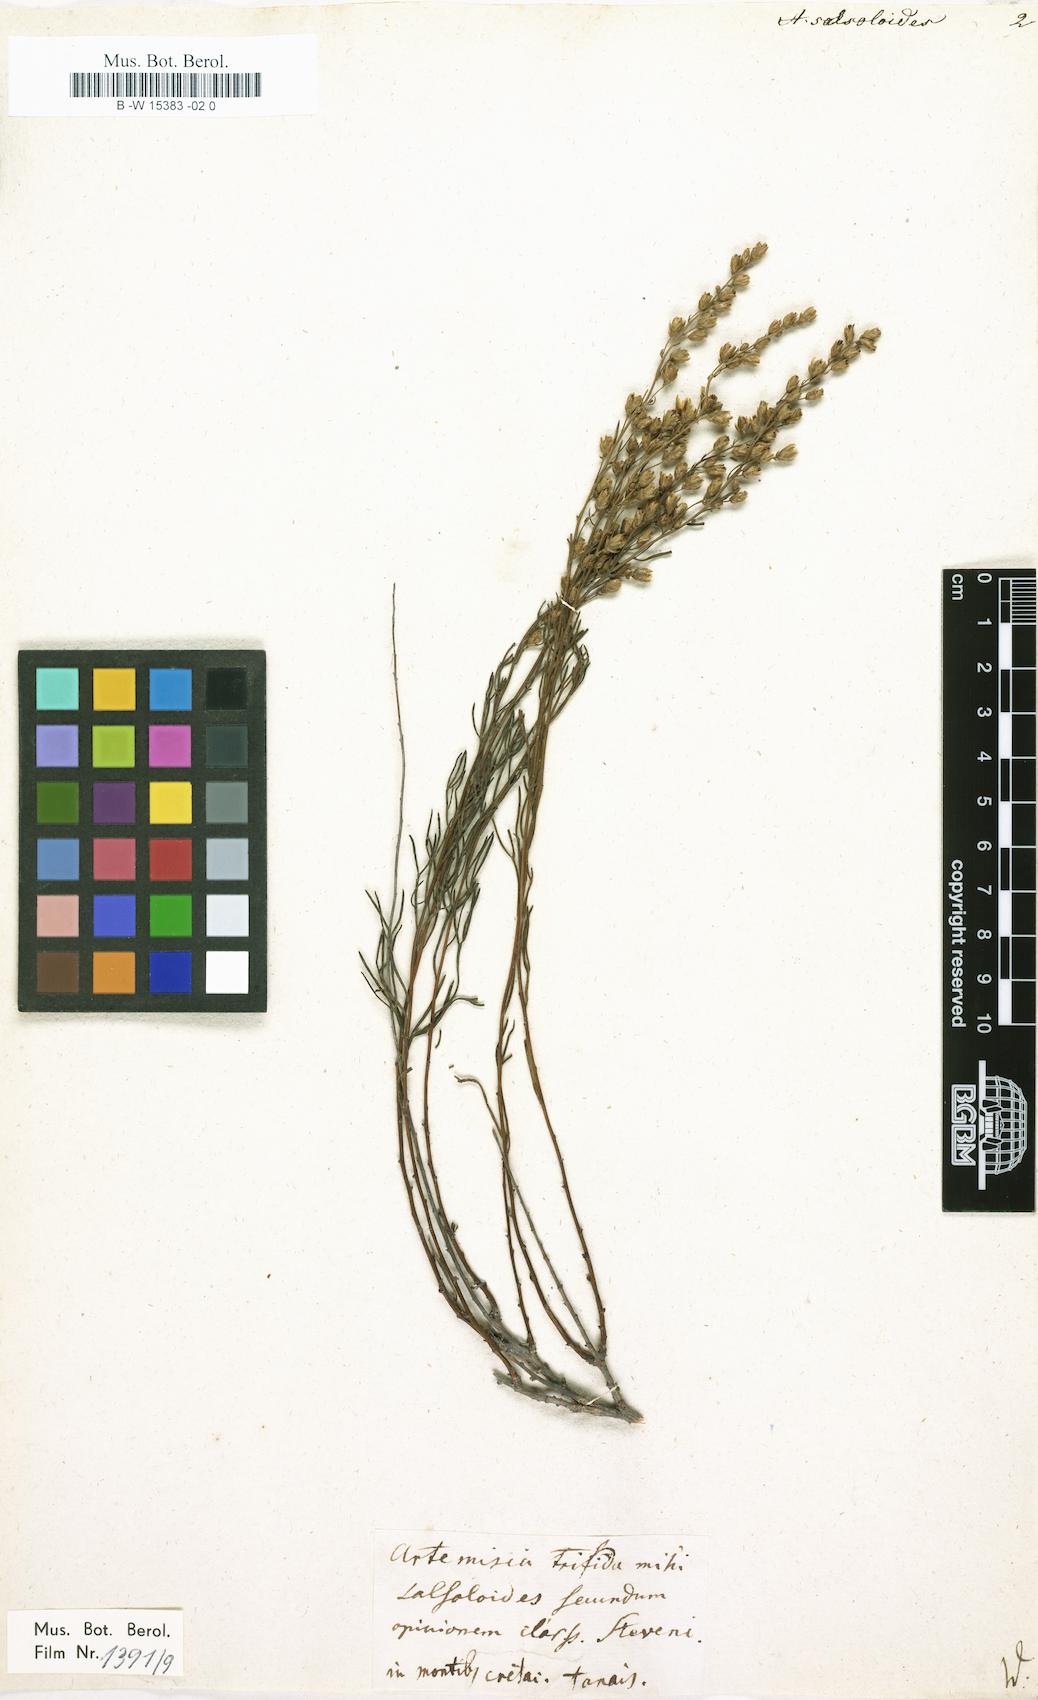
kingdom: Plantae
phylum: Tracheophyta
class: Magnoliopsida
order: Asterales
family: Asteraceae
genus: Artemisia
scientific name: Artemisia salsoloides
